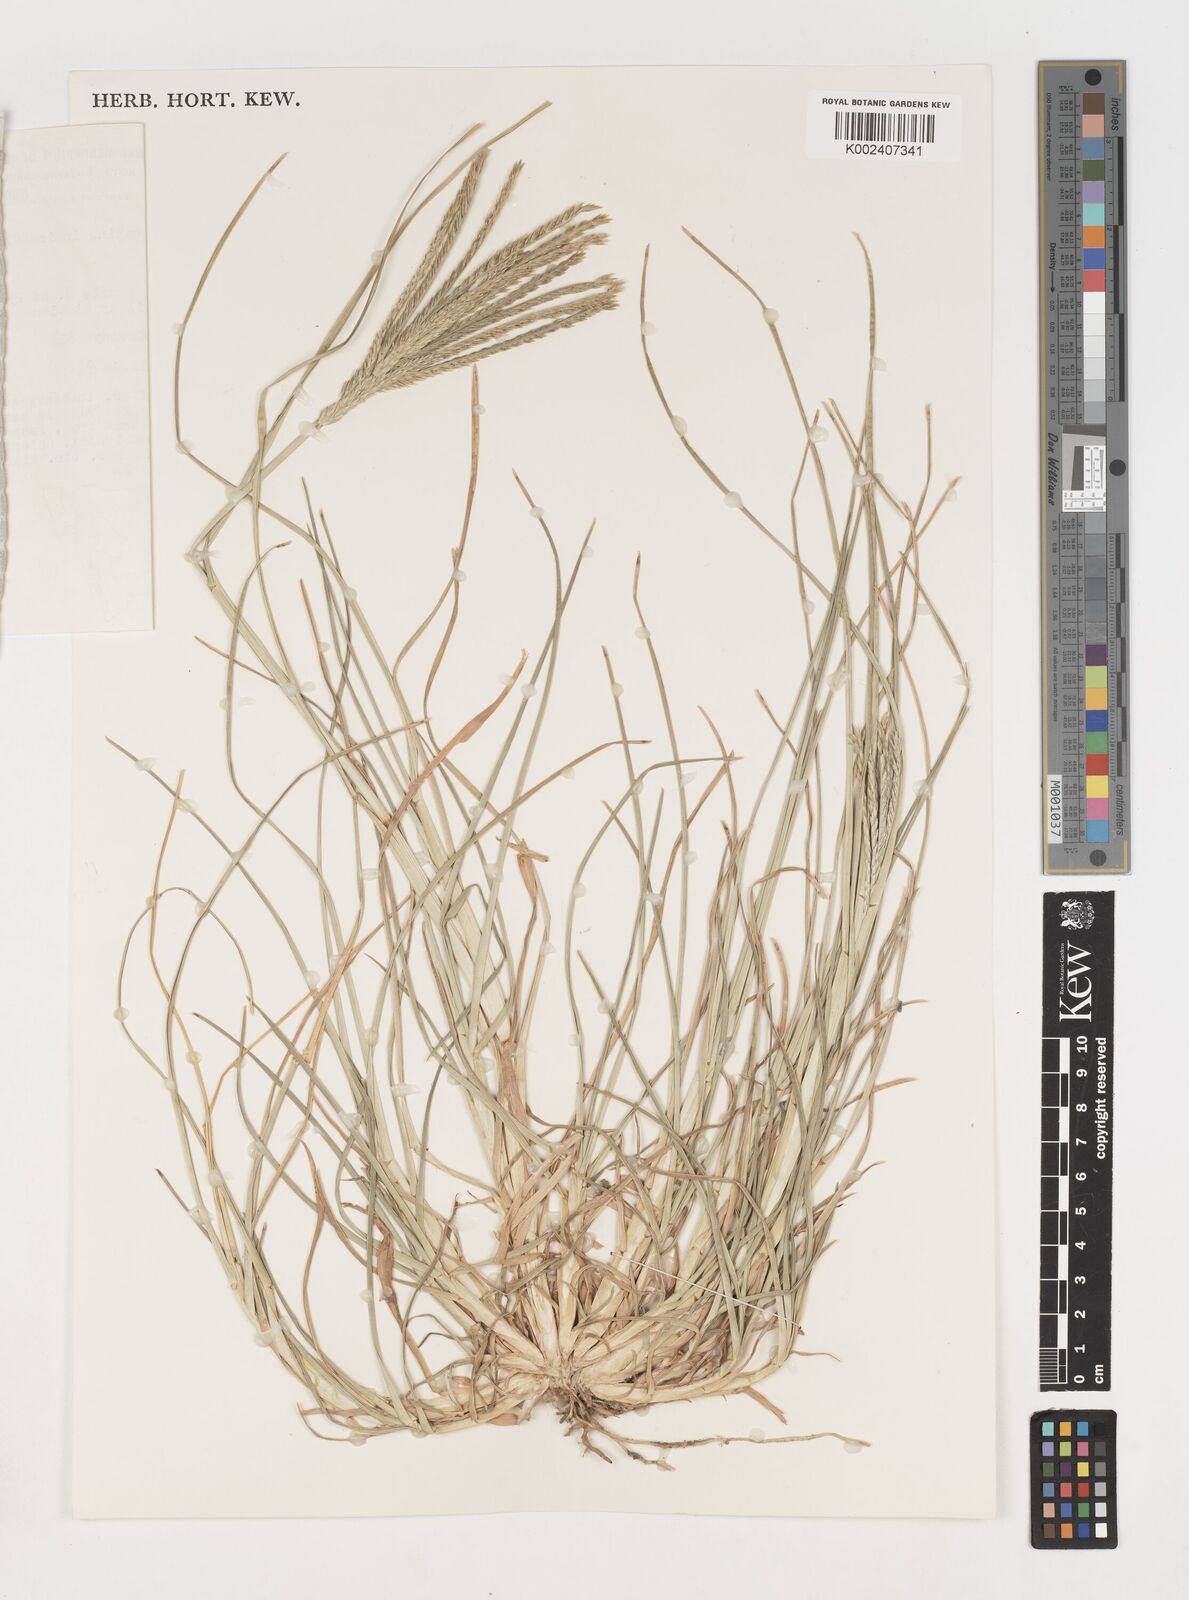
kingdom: Plantae
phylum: Tracheophyta
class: Liliopsida
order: Poales
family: Poaceae
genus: Eleusine
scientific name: Eleusine indica
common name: Yard-grass
